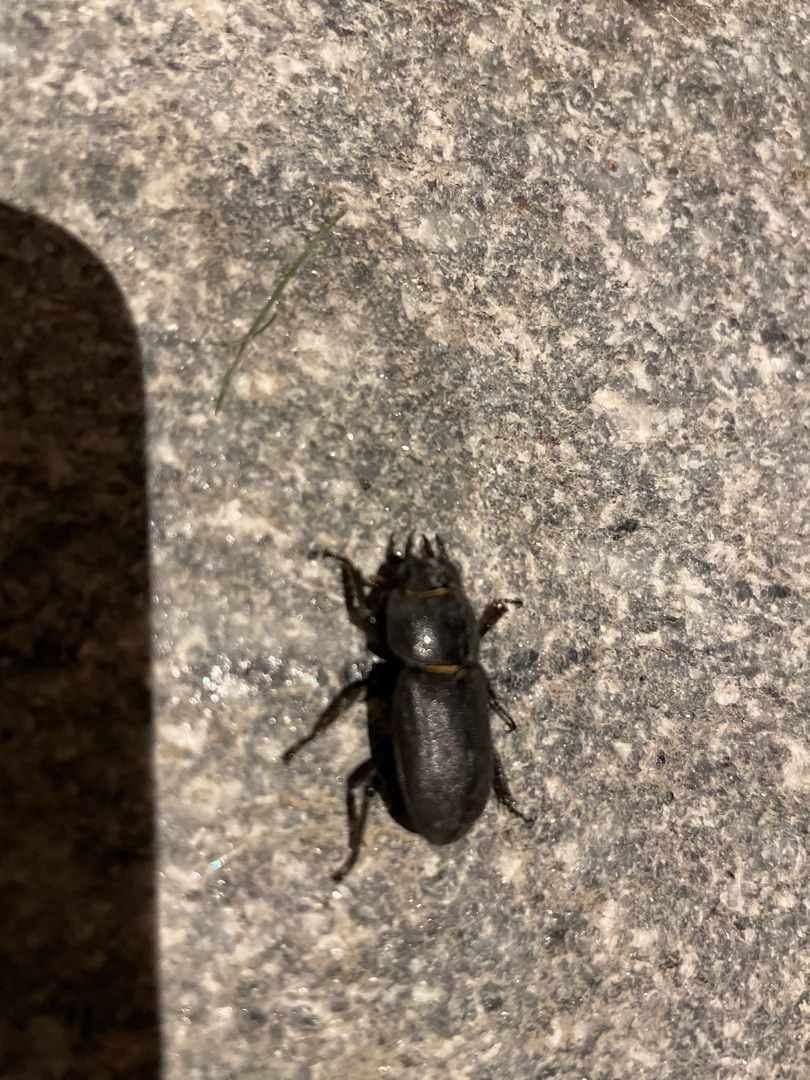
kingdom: Animalia
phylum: Arthropoda
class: Insecta
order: Coleoptera
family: Lucanidae
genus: Dorcus
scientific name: Dorcus parallelipipedus
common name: Bøghjort
